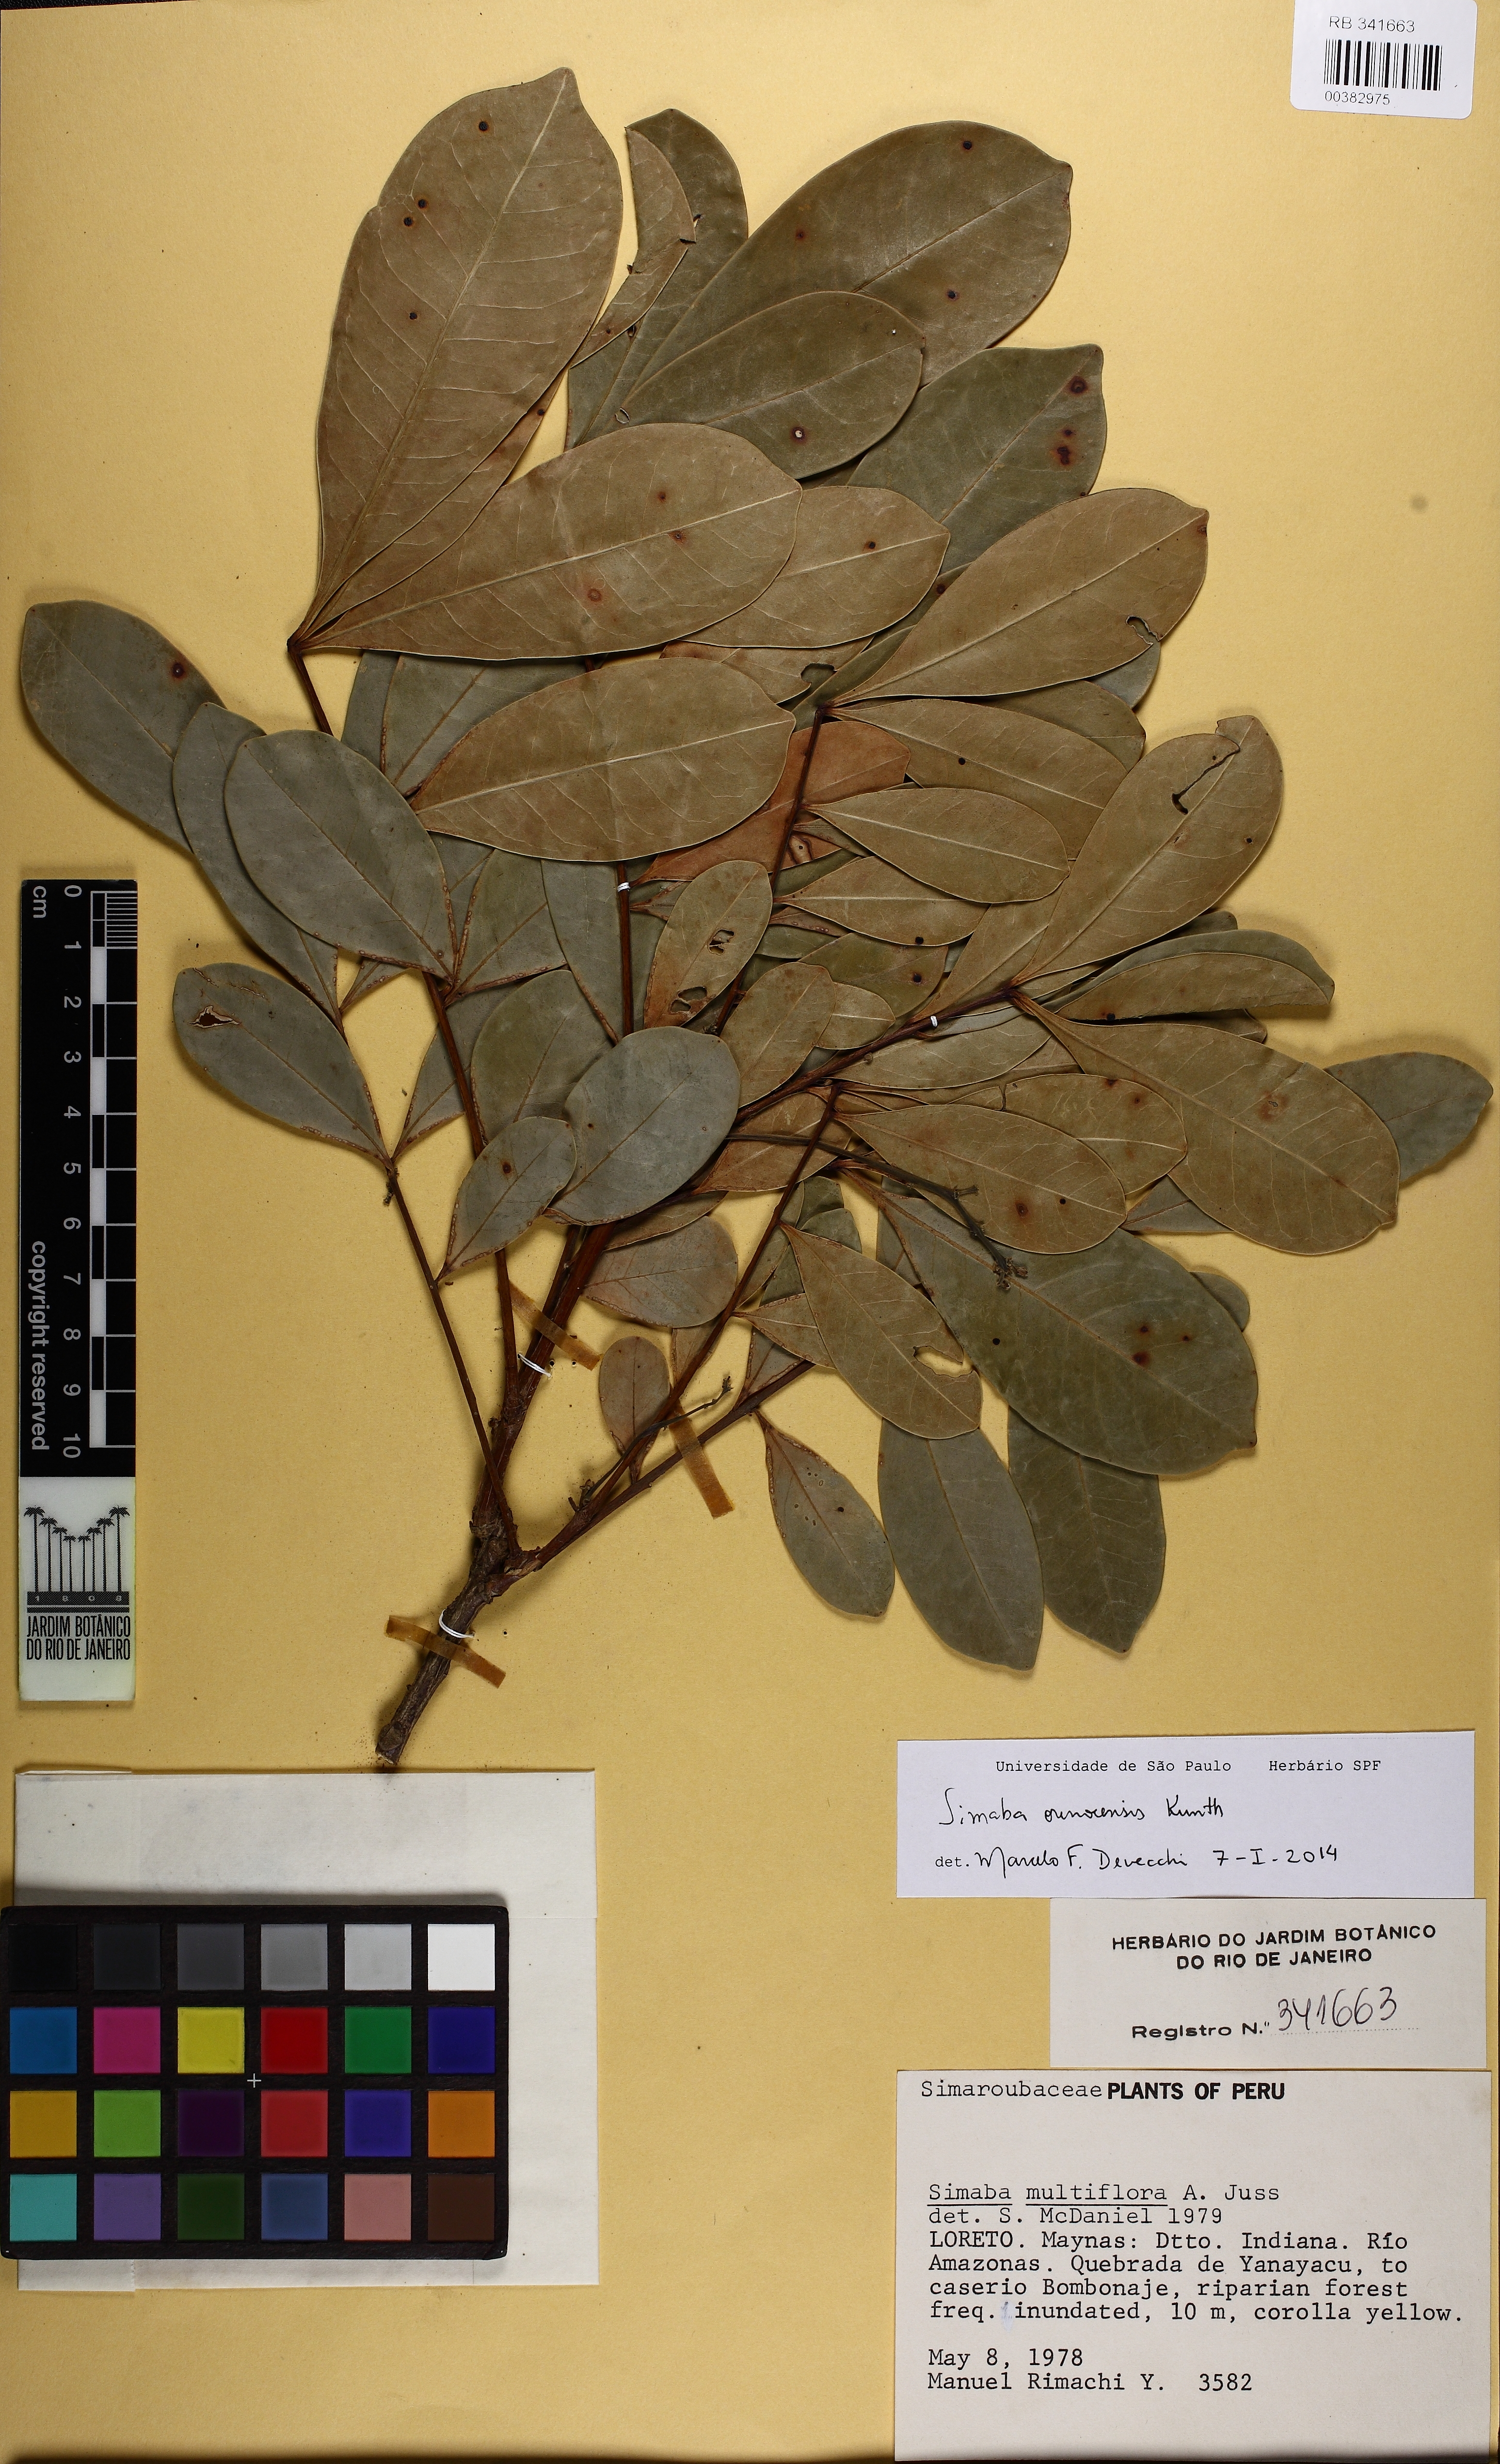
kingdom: Plantae
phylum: Tracheophyta
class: Magnoliopsida
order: Sapindales
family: Simaroubaceae
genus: Simaba
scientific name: Simaba orinocensis
